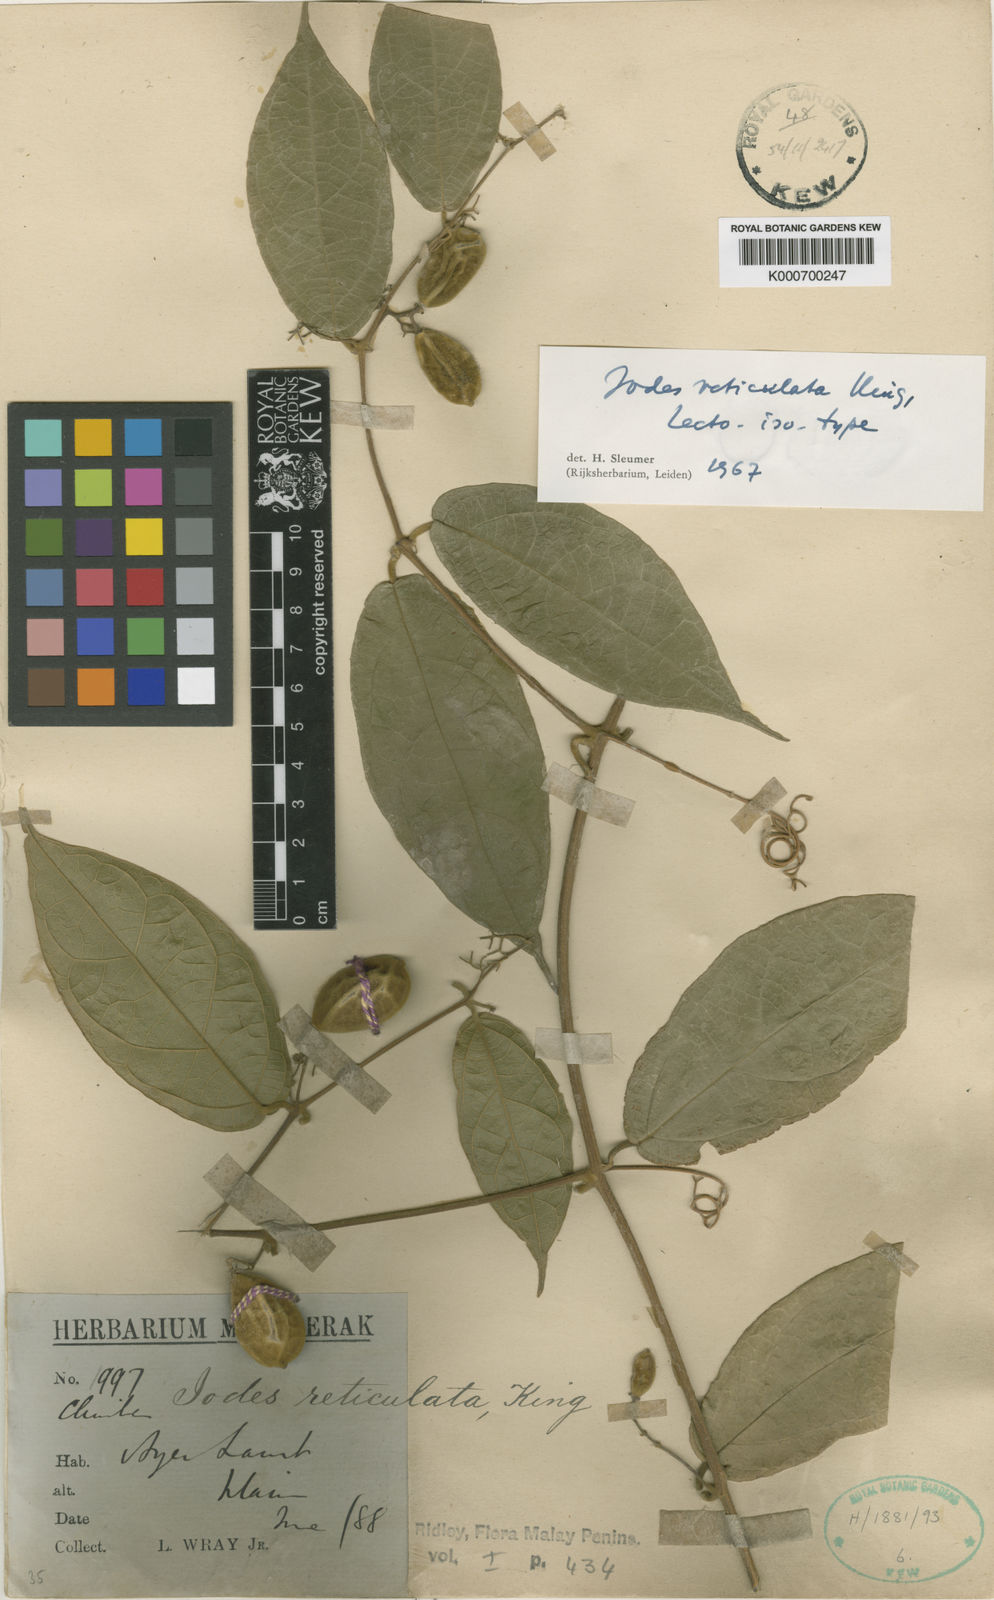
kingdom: Plantae
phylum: Tracheophyta
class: Magnoliopsida
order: Icacinales
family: Icacinaceae
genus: Iodes
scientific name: Iodes reticulata
